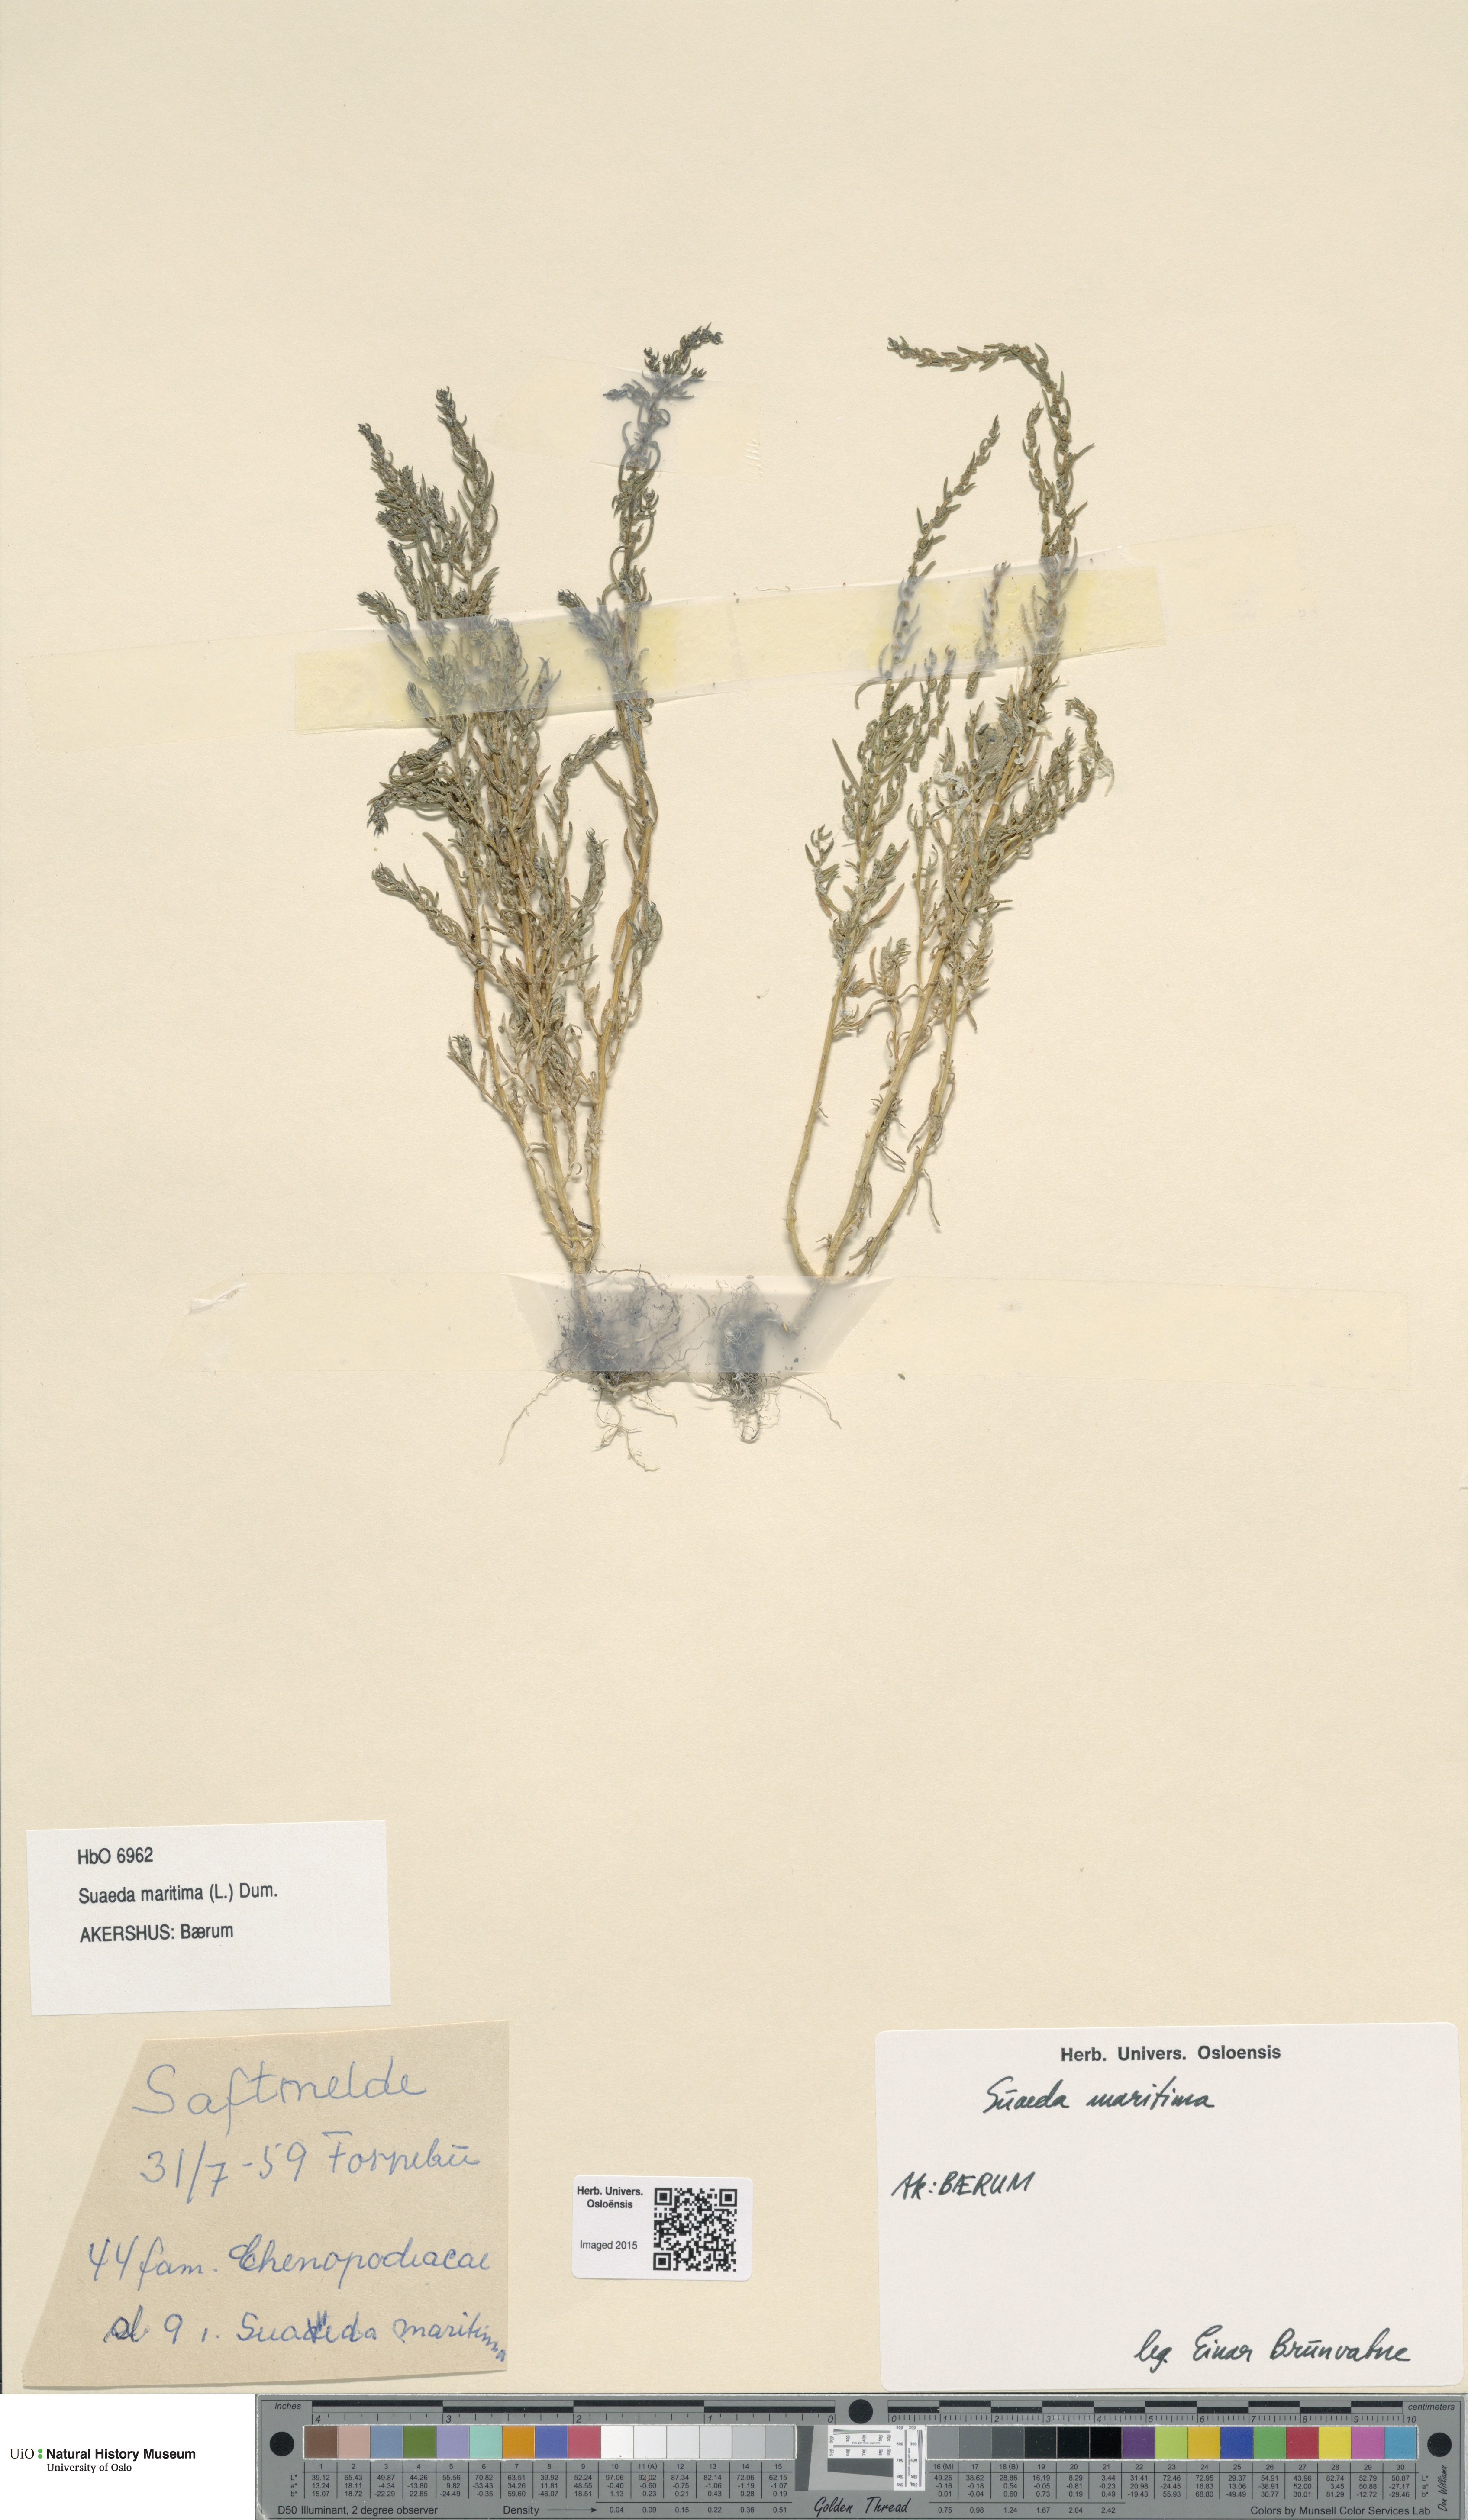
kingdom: Plantae
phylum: Tracheophyta
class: Magnoliopsida
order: Caryophyllales
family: Amaranthaceae
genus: Suaeda
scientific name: Suaeda maritima
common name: Annual sea-blite
